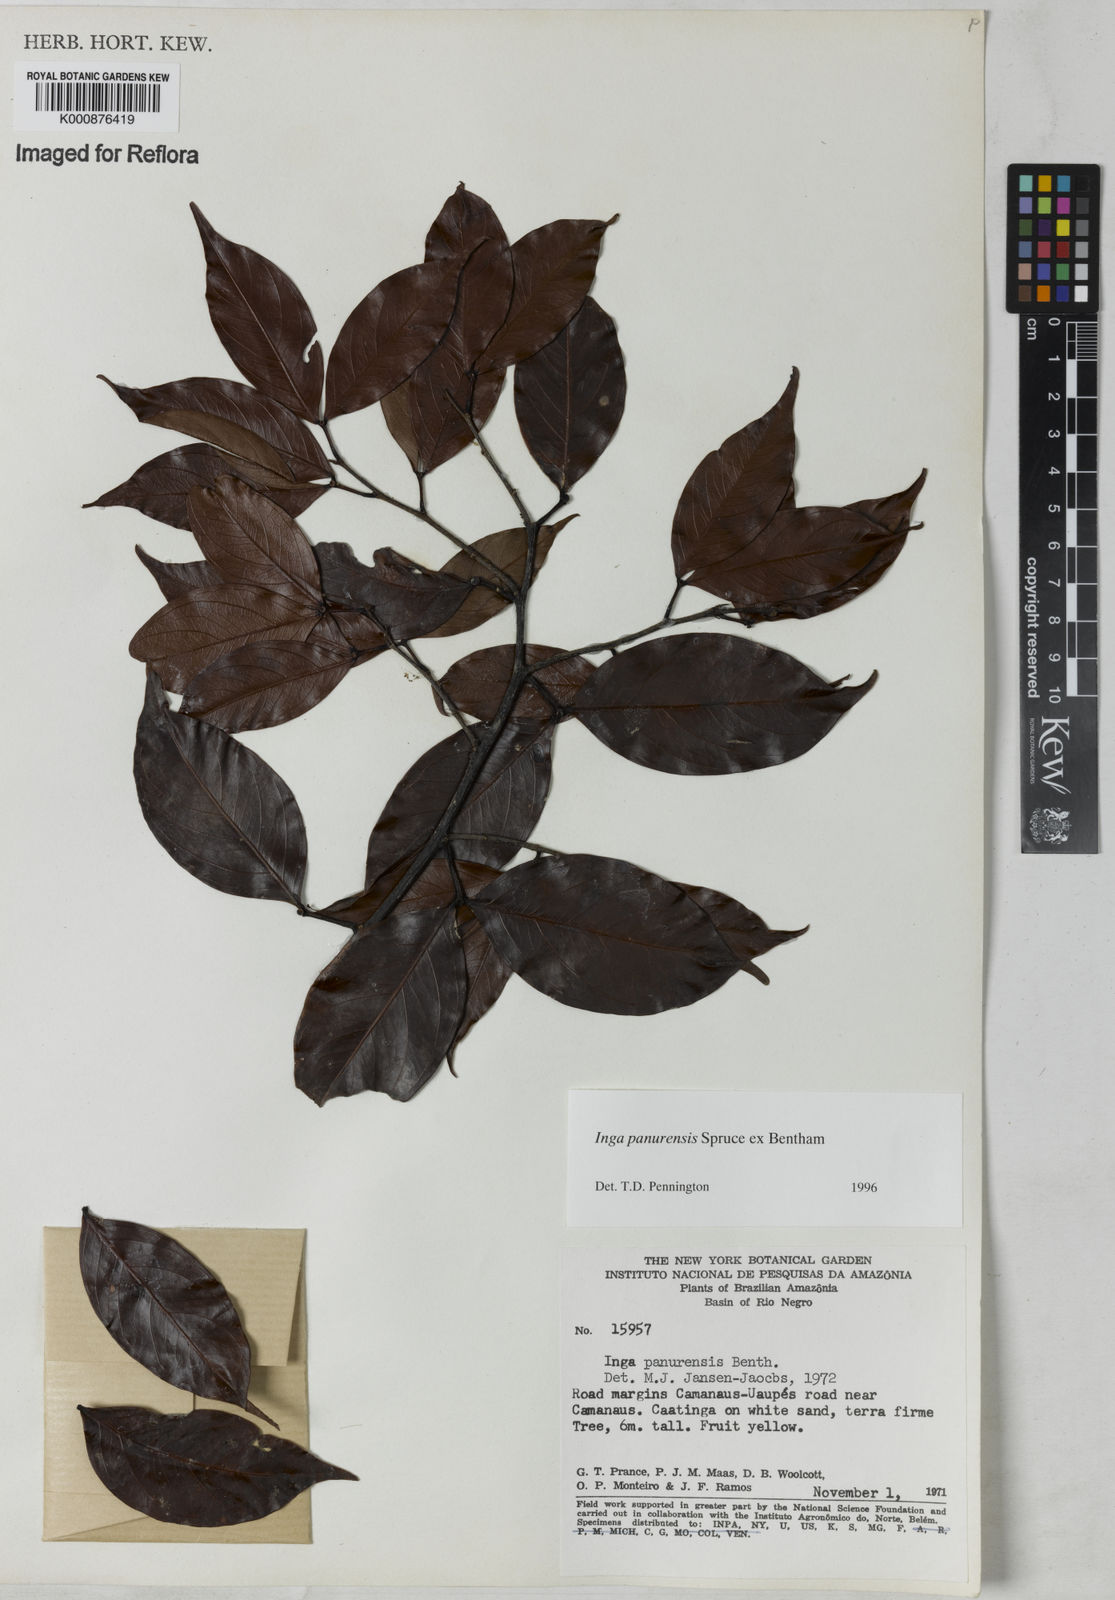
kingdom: Plantae
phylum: Tracheophyta
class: Magnoliopsida
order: Fabales
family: Fabaceae
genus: Inga
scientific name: Inga panurensis
